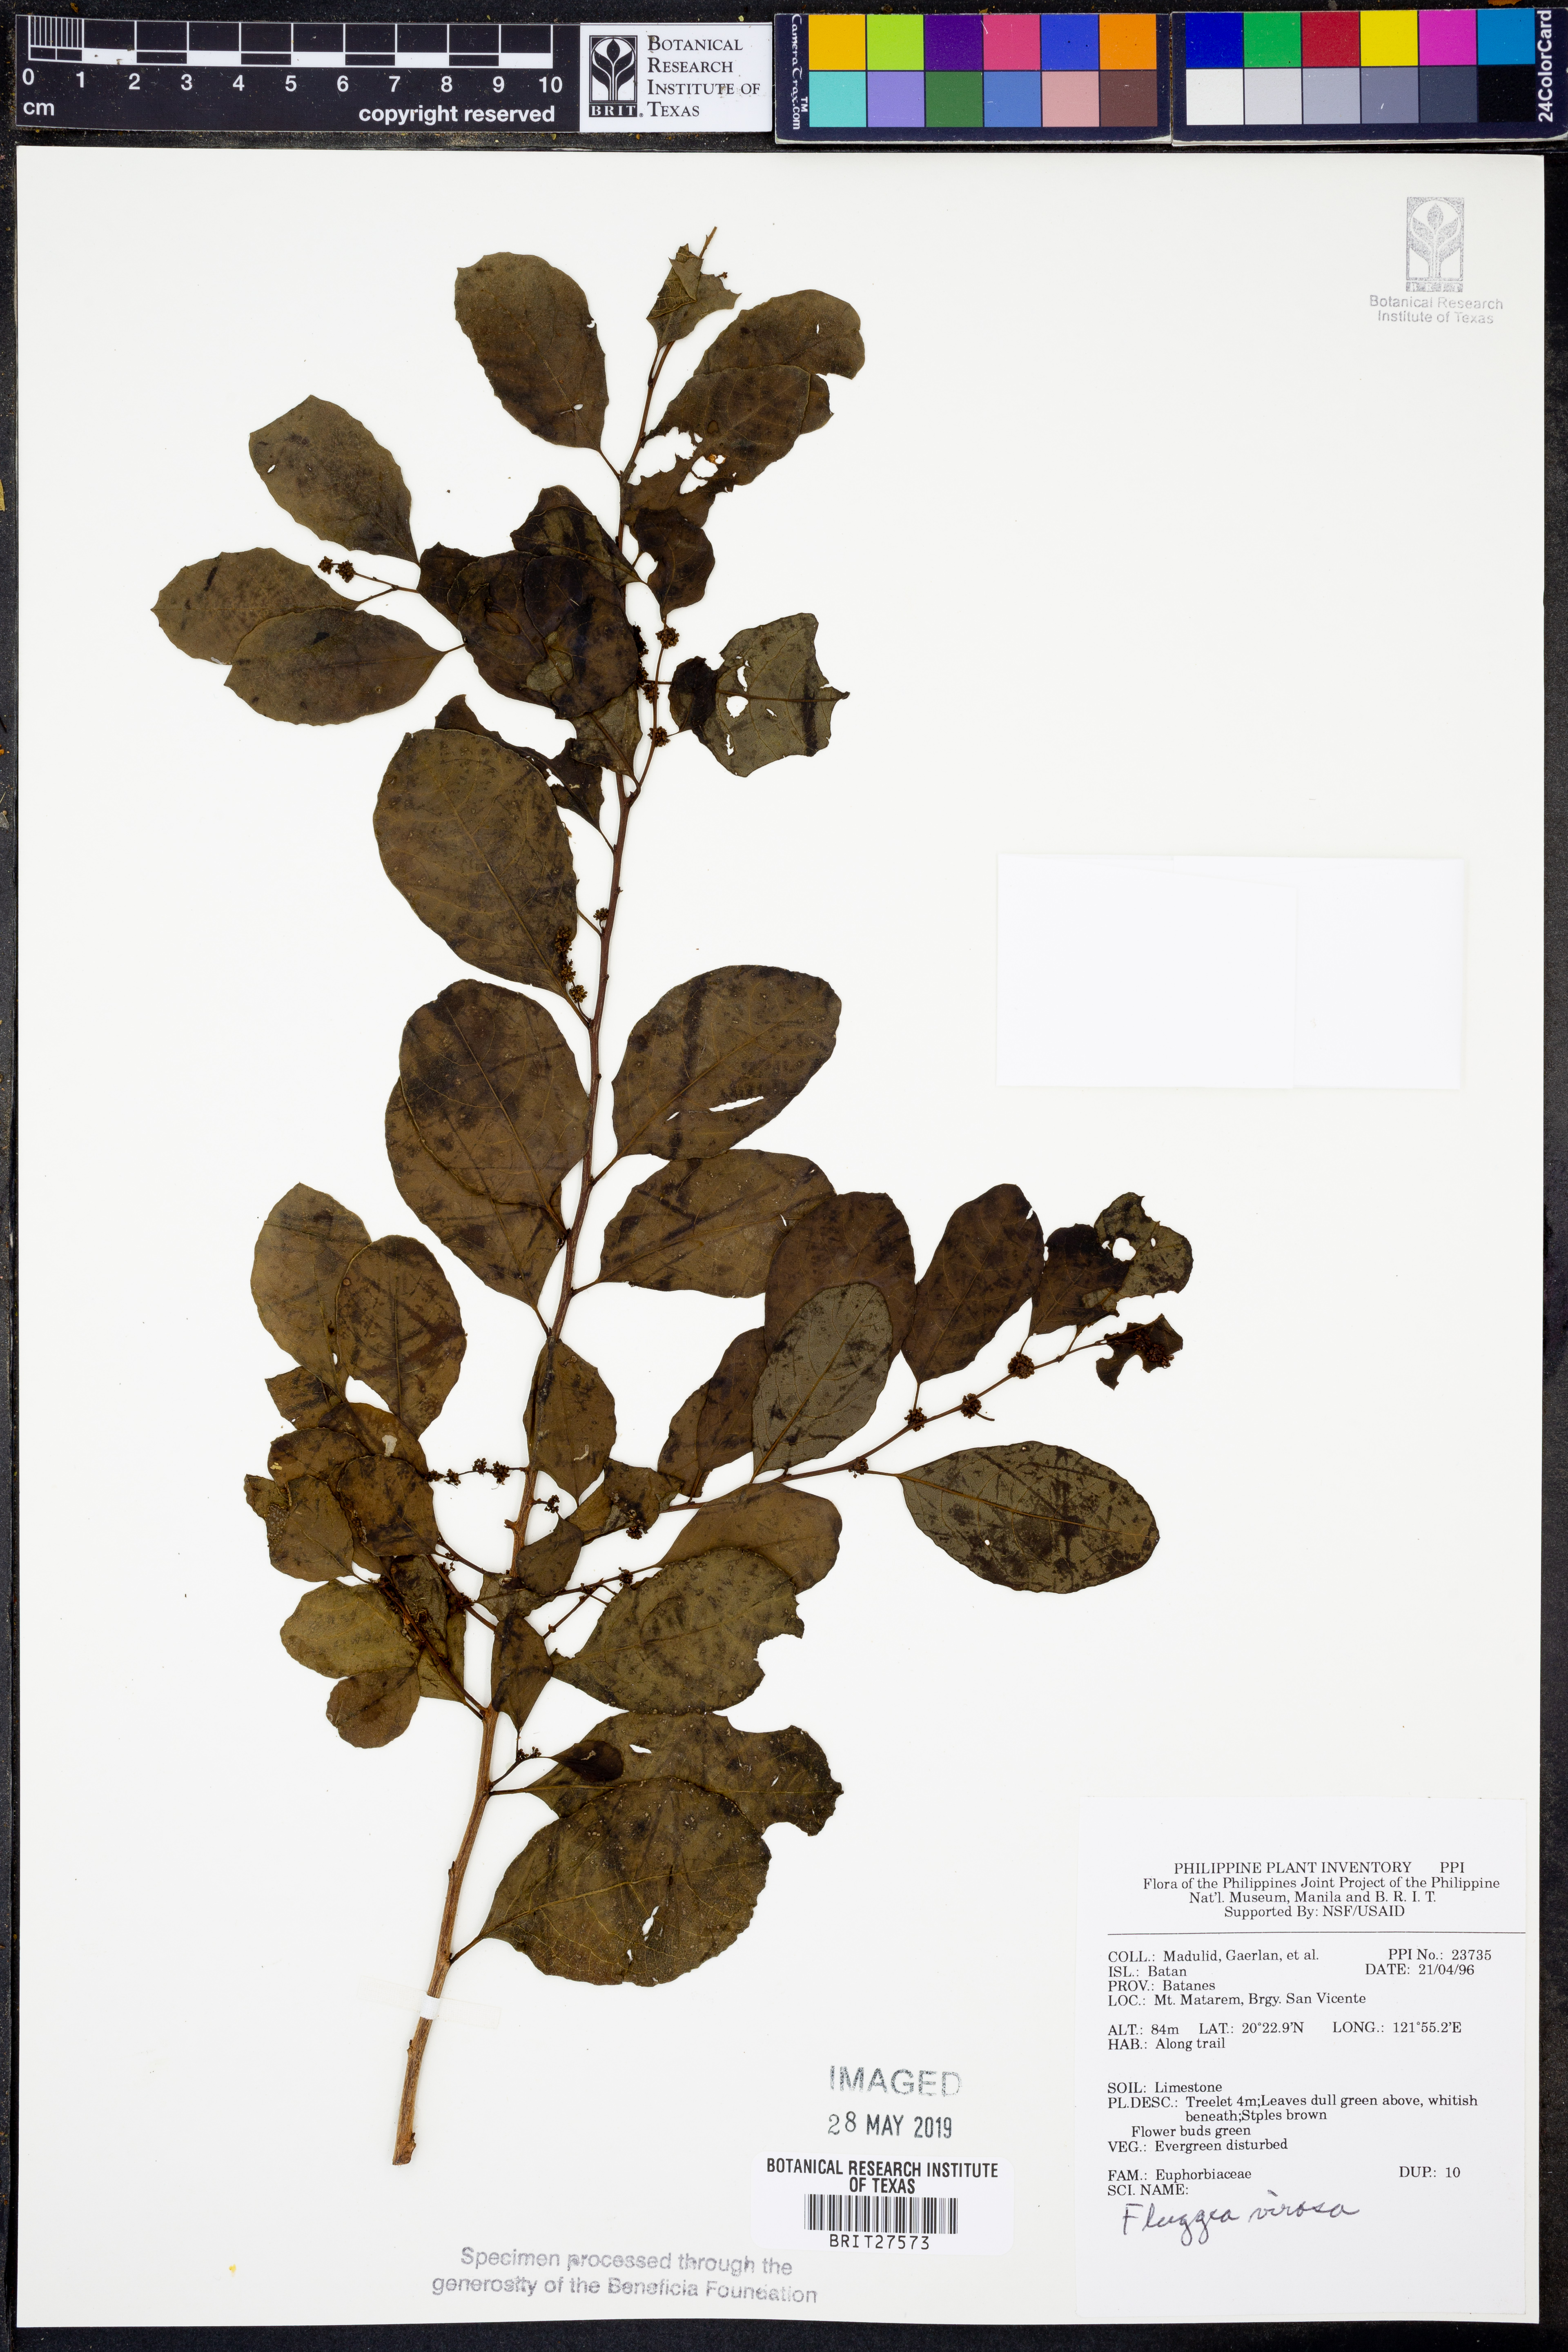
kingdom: Plantae
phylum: Tracheophyta
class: Magnoliopsida
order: Malpighiales
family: Phyllanthaceae
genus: Flueggea
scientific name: Flueggea virosa
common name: Common bushweed
